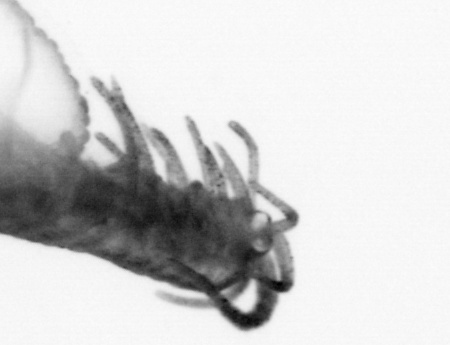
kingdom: Animalia
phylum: Annelida
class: Polychaeta
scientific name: Polychaeta
